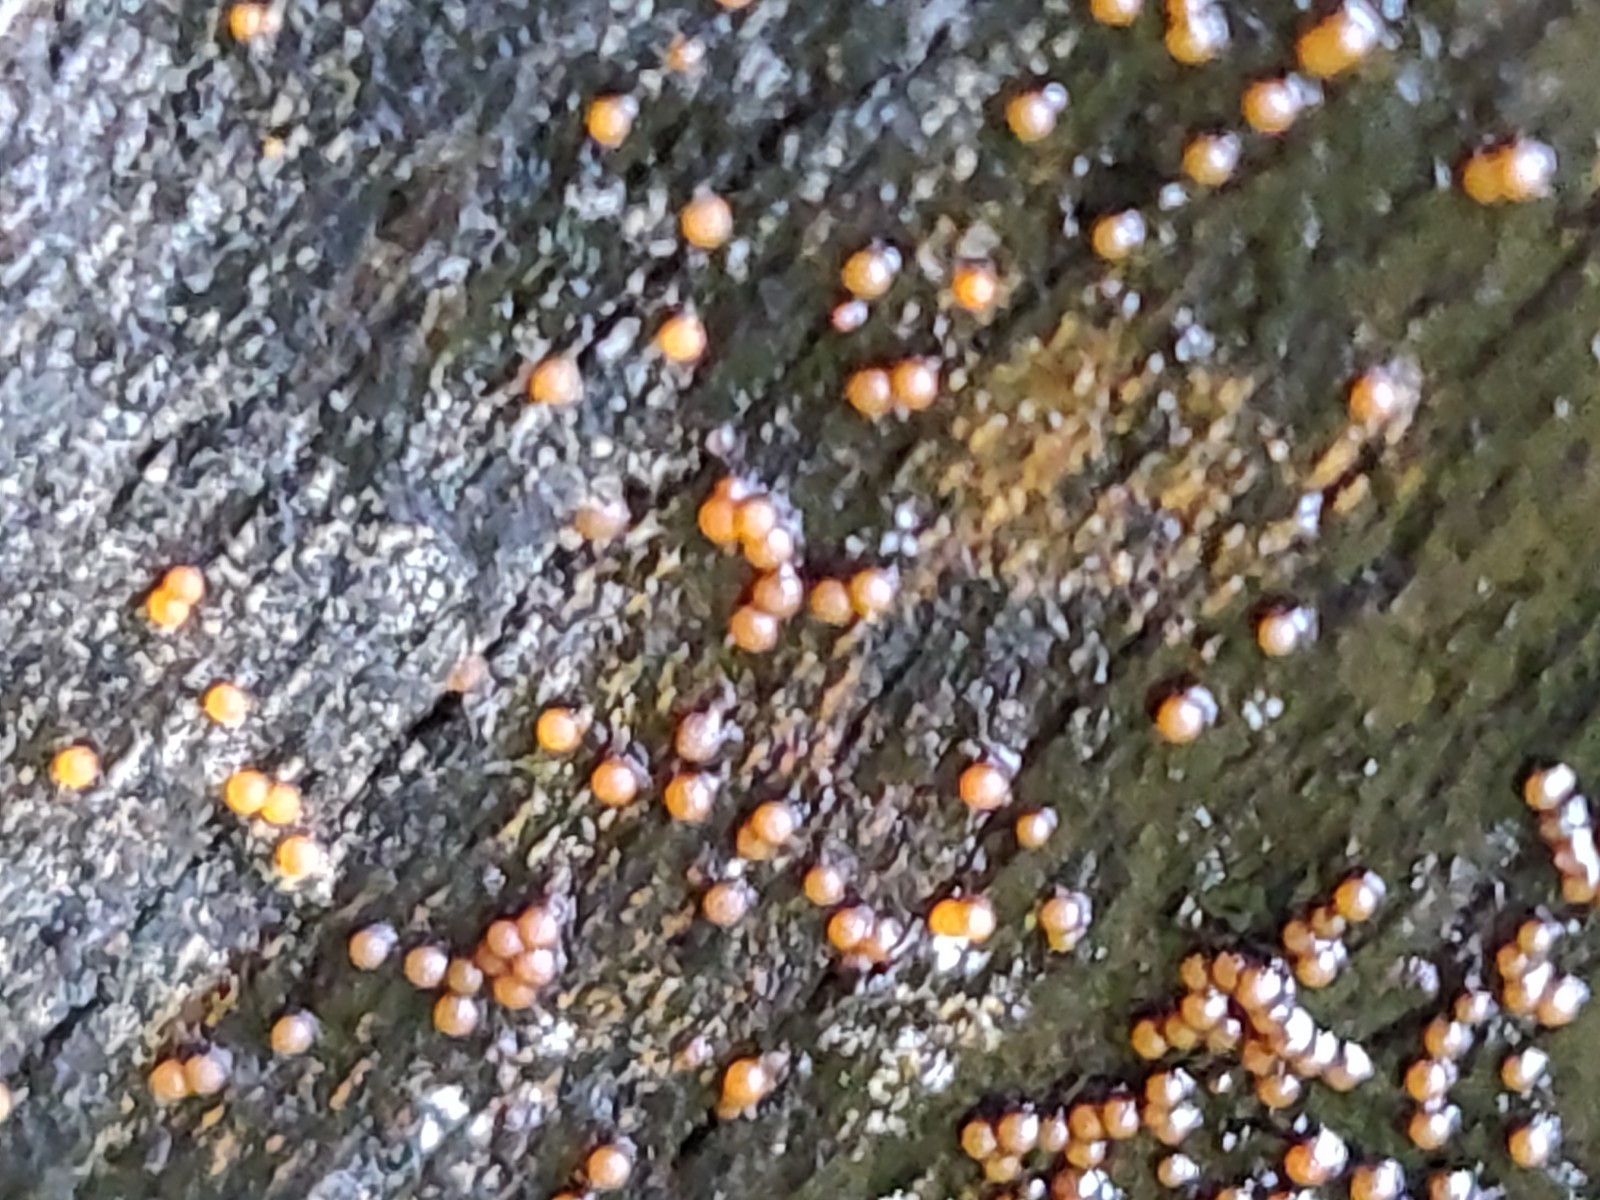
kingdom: Fungi
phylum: Basidiomycota
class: Dacrymycetes
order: Dacrymycetales
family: Dacrymycetaceae
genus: Dacrymyces
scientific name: Dacrymyces stillatus
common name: almindelig tåresvamp
